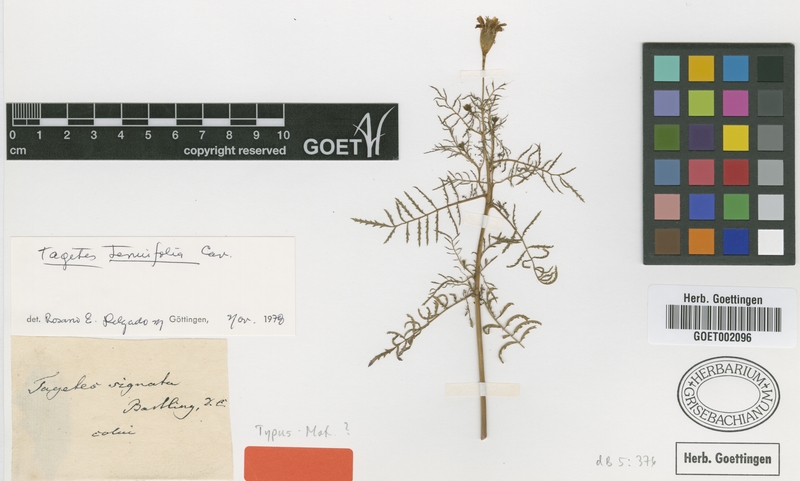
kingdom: Plantae
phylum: Tracheophyta
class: Magnoliopsida
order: Asterales
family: Asteraceae
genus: Tagetes
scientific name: Tagetes tenuifolia
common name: Signet marigold
